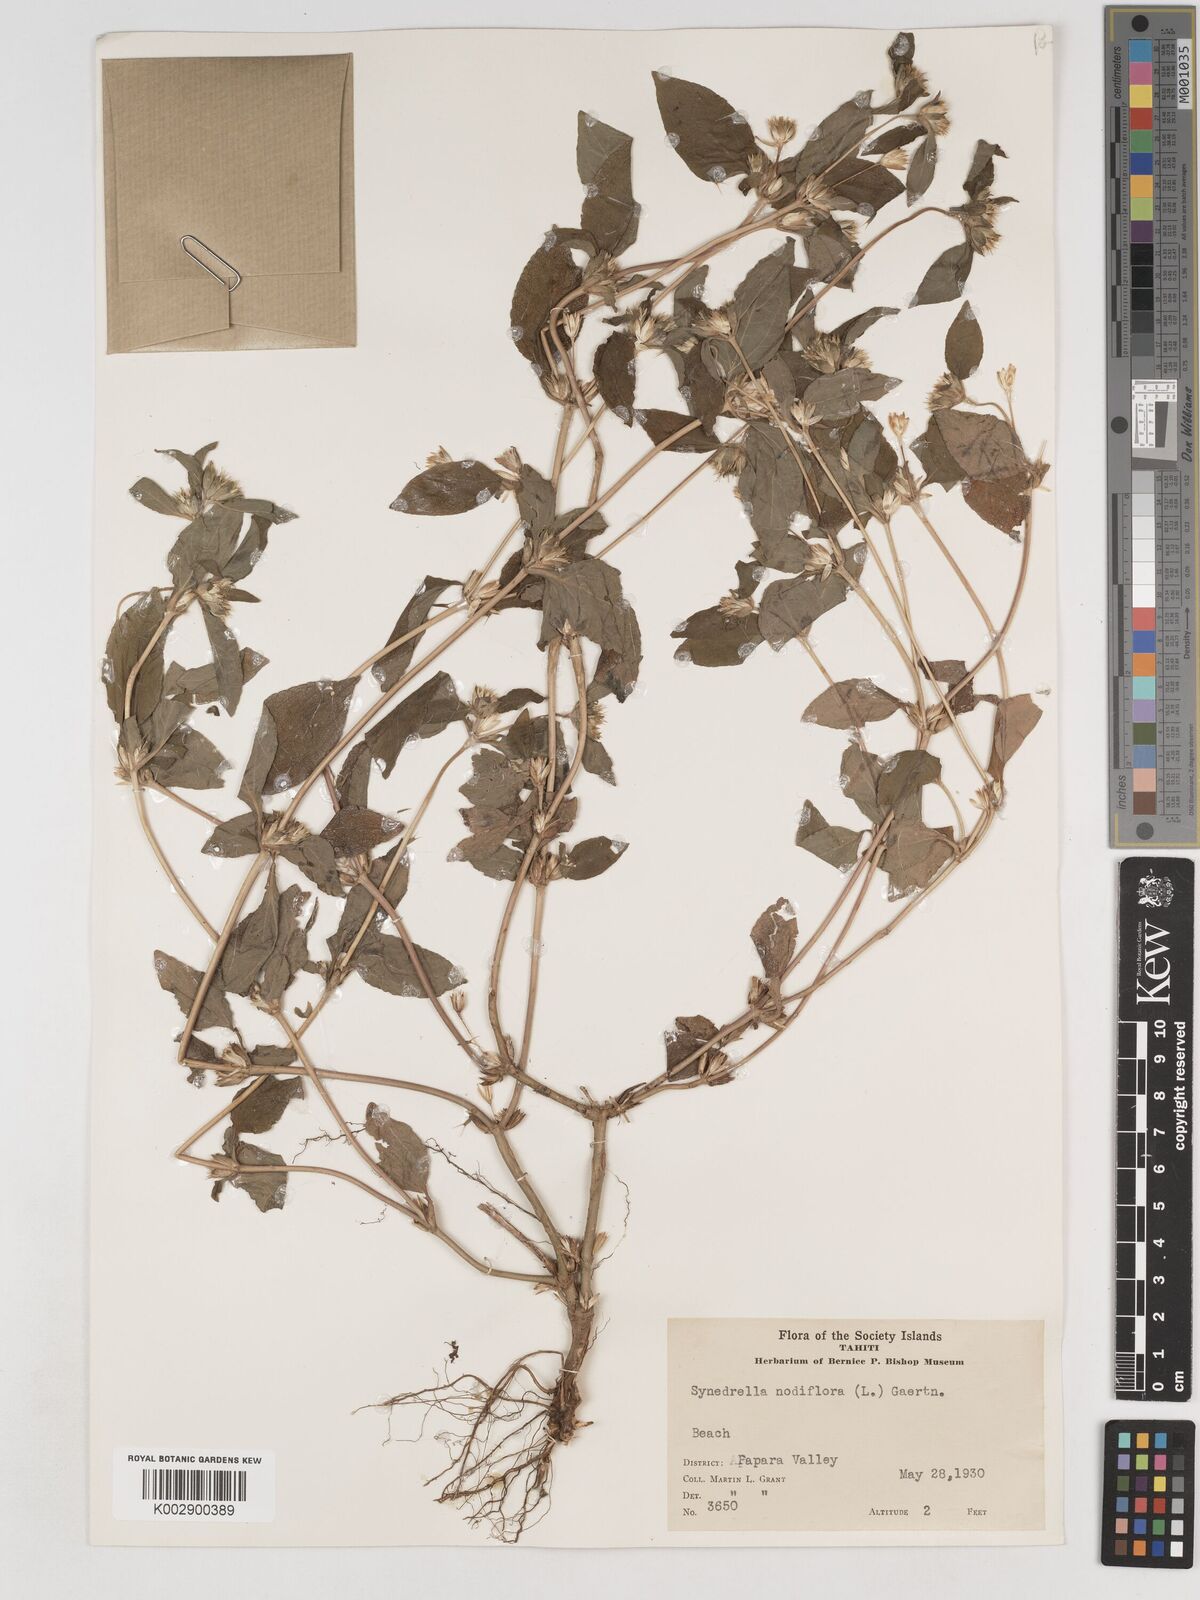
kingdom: Plantae
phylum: Tracheophyta
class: Magnoliopsida
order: Asterales
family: Asteraceae
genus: Synedrella
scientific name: Synedrella nodiflora
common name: Nodeweed
